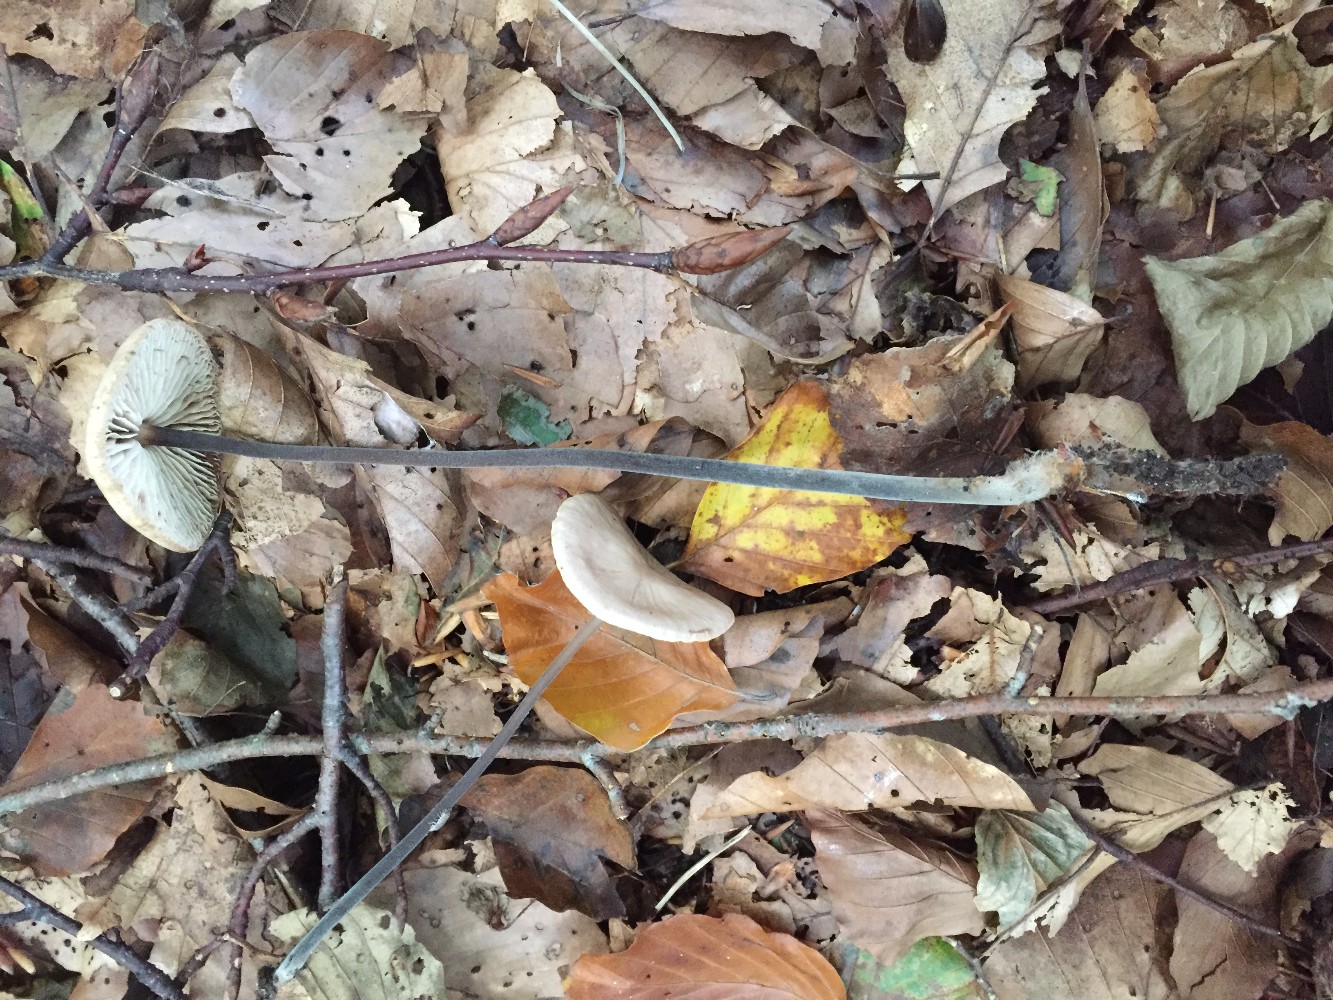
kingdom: Fungi
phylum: Basidiomycota
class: Agaricomycetes
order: Agaricales
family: Omphalotaceae
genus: Mycetinis
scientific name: Mycetinis alliaceus
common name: stor løghat
